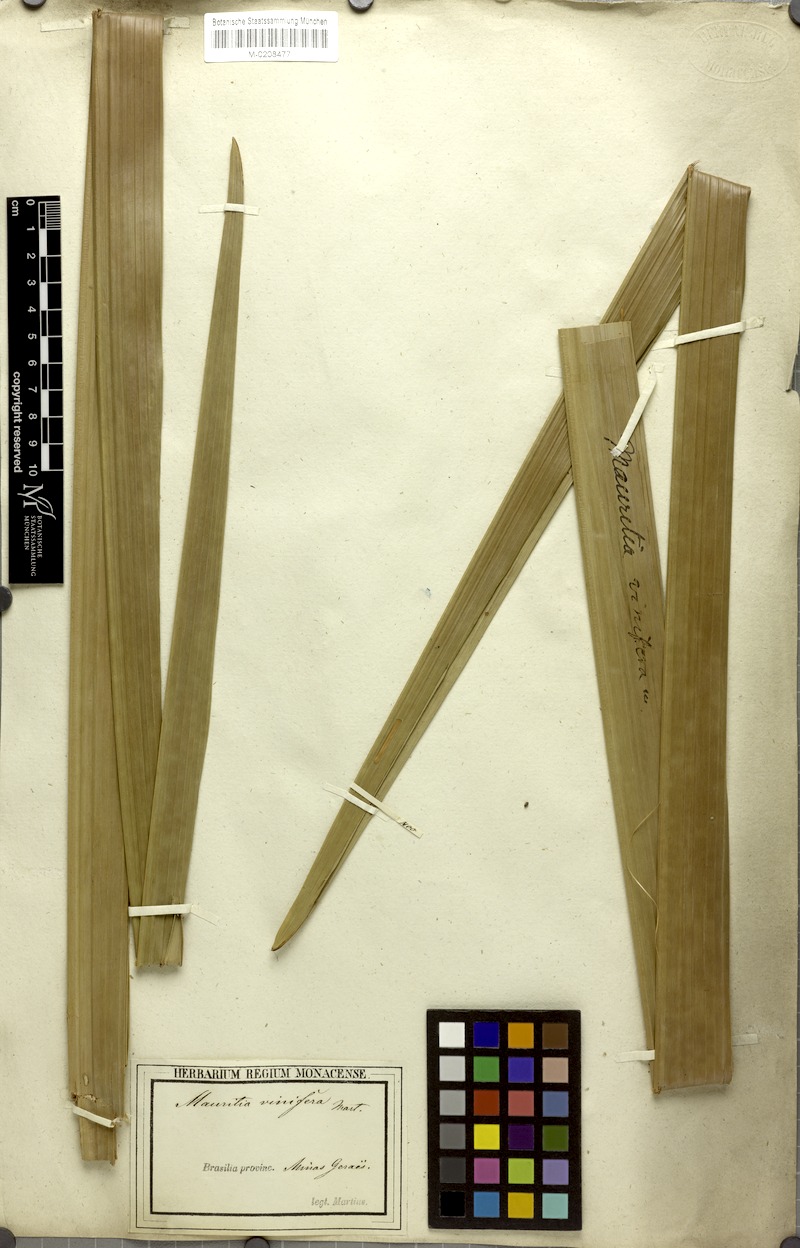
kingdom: Plantae
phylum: Tracheophyta
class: Liliopsida
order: Arecales
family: Arecaceae
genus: Mauritia
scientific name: Mauritia flexuosa
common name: Tree-of-life
